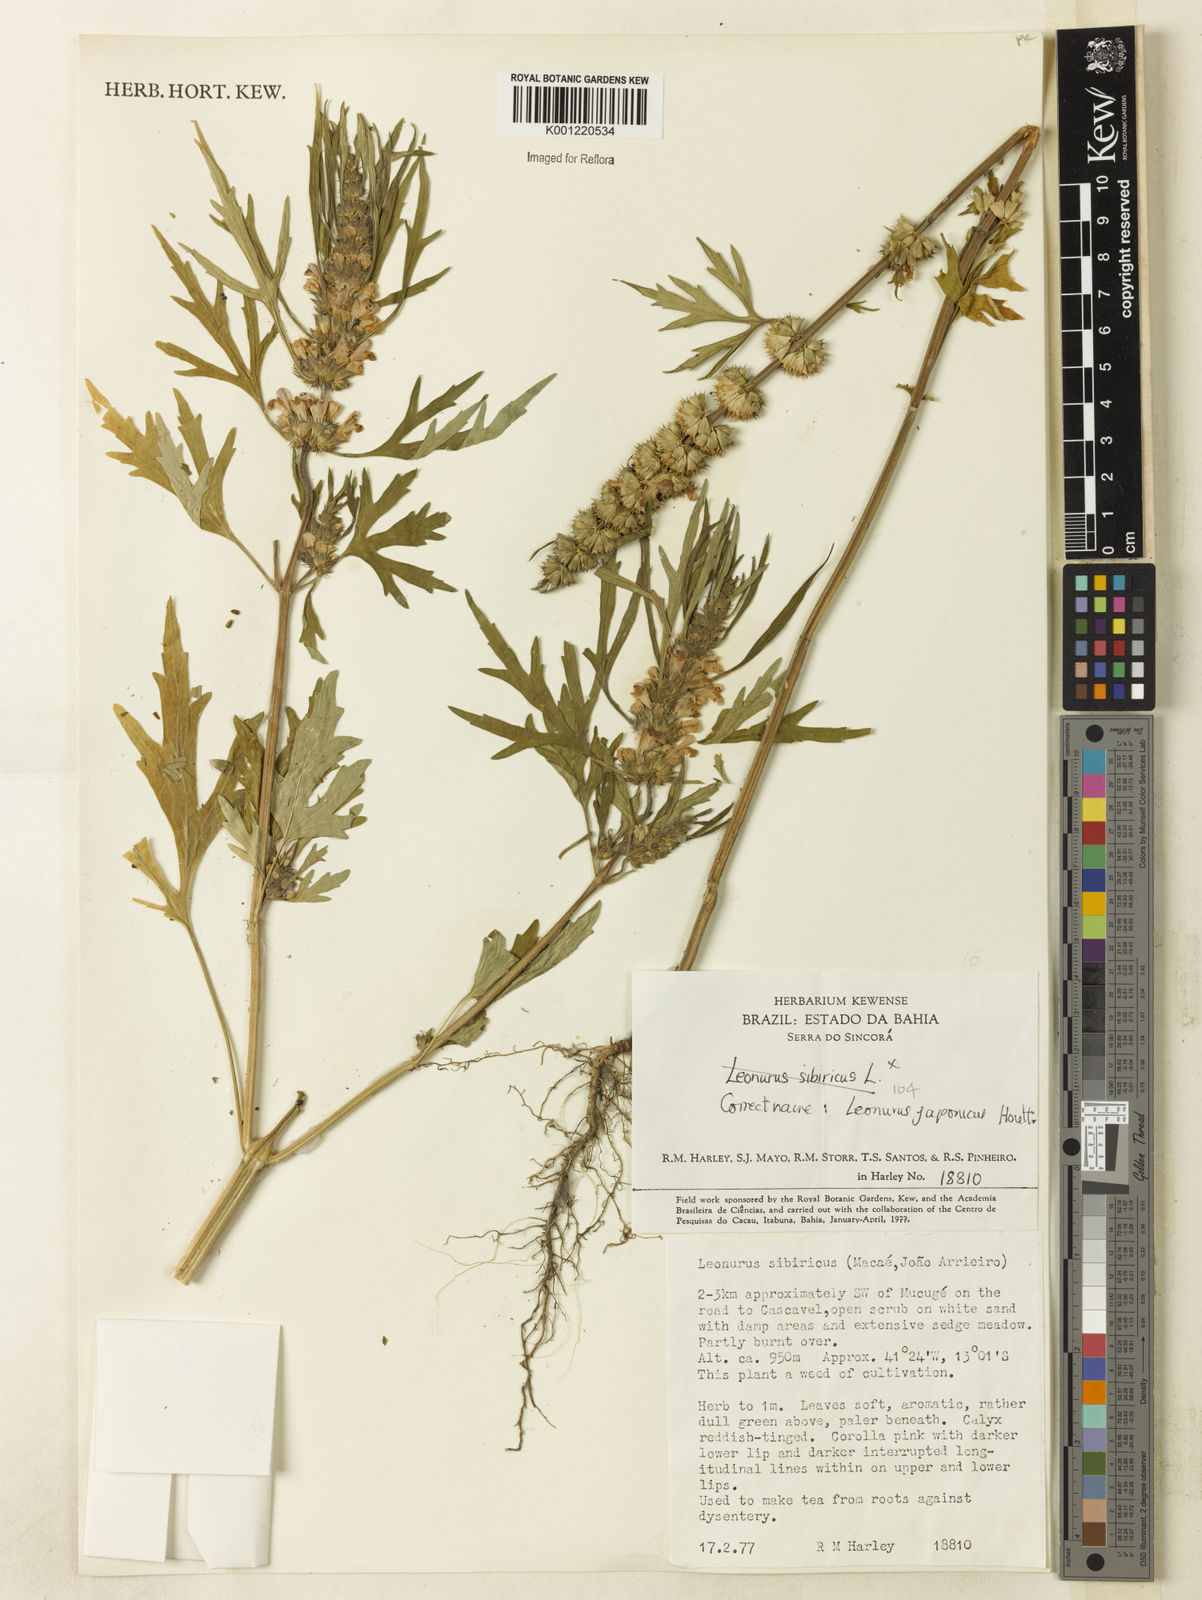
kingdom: Plantae
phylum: Tracheophyta
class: Magnoliopsida
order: Lamiales
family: Lamiaceae
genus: Leonurus
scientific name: Leonurus japonicus
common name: Honeyweed
